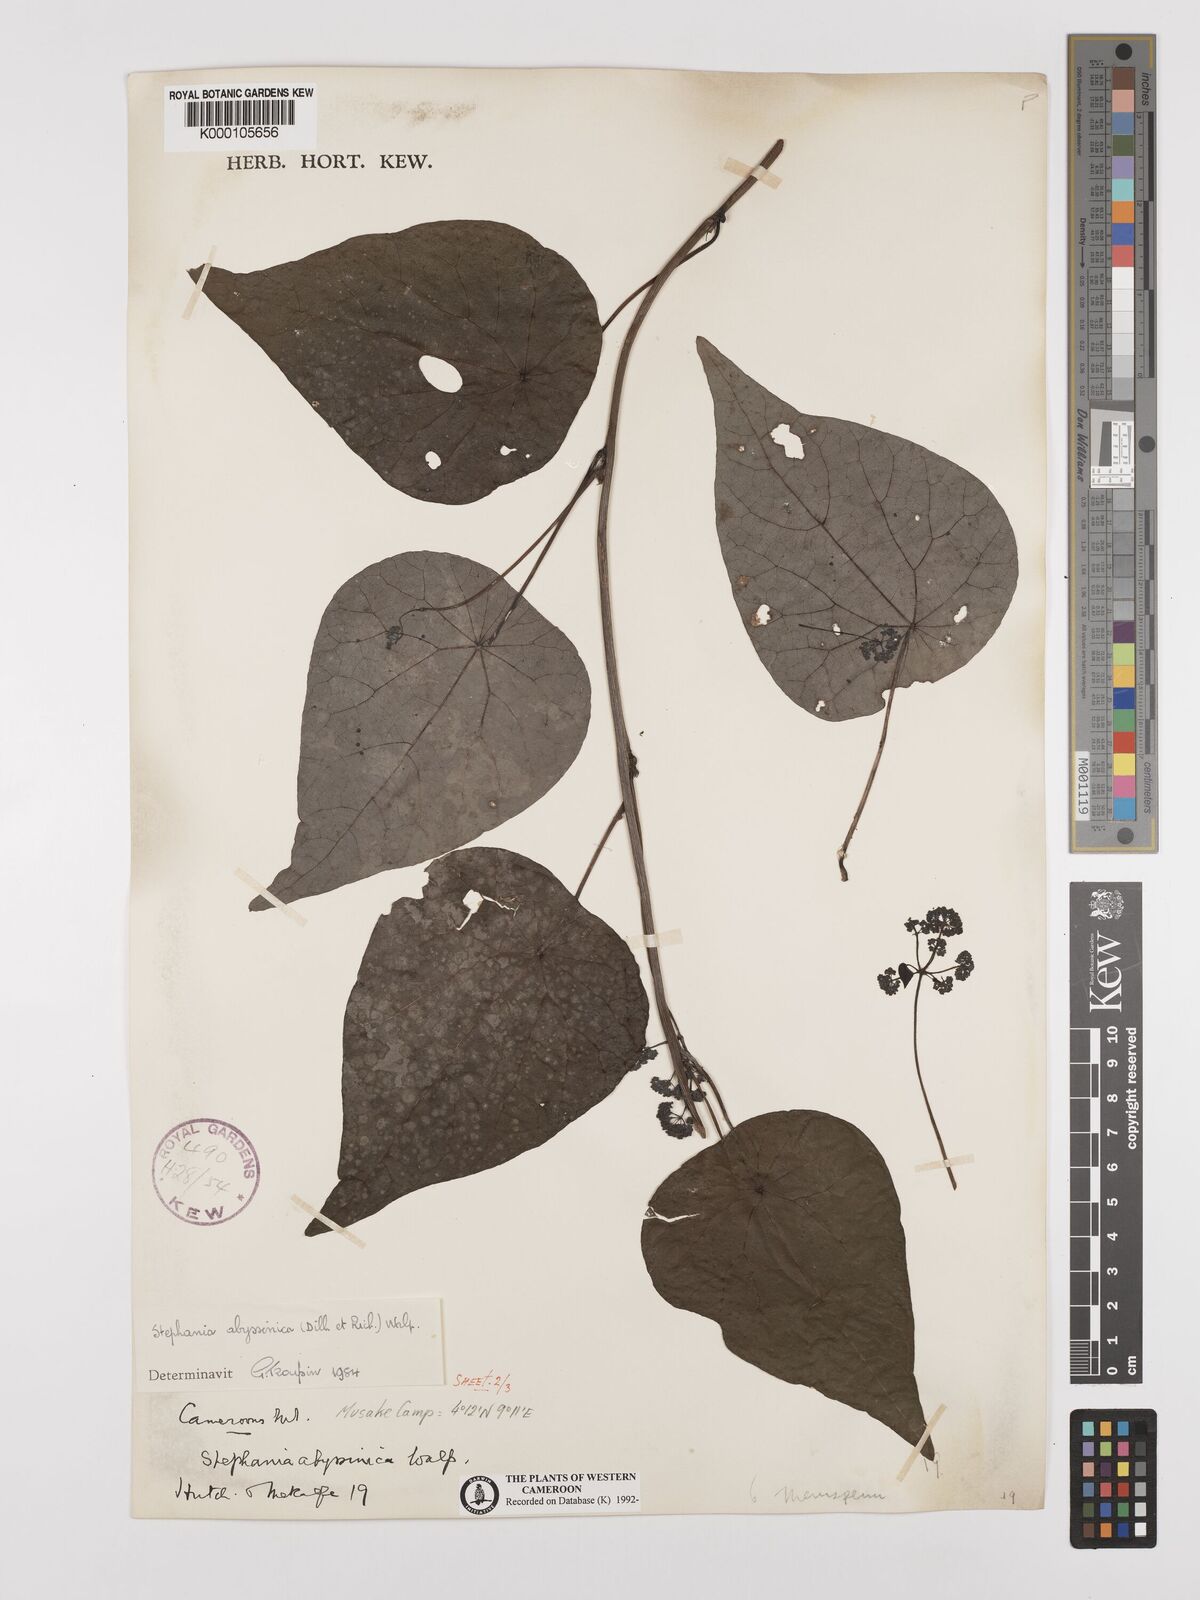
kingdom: Plantae
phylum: Tracheophyta
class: Magnoliopsida
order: Ranunculales
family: Menispermaceae
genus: Stephania
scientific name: Stephania abyssinica
